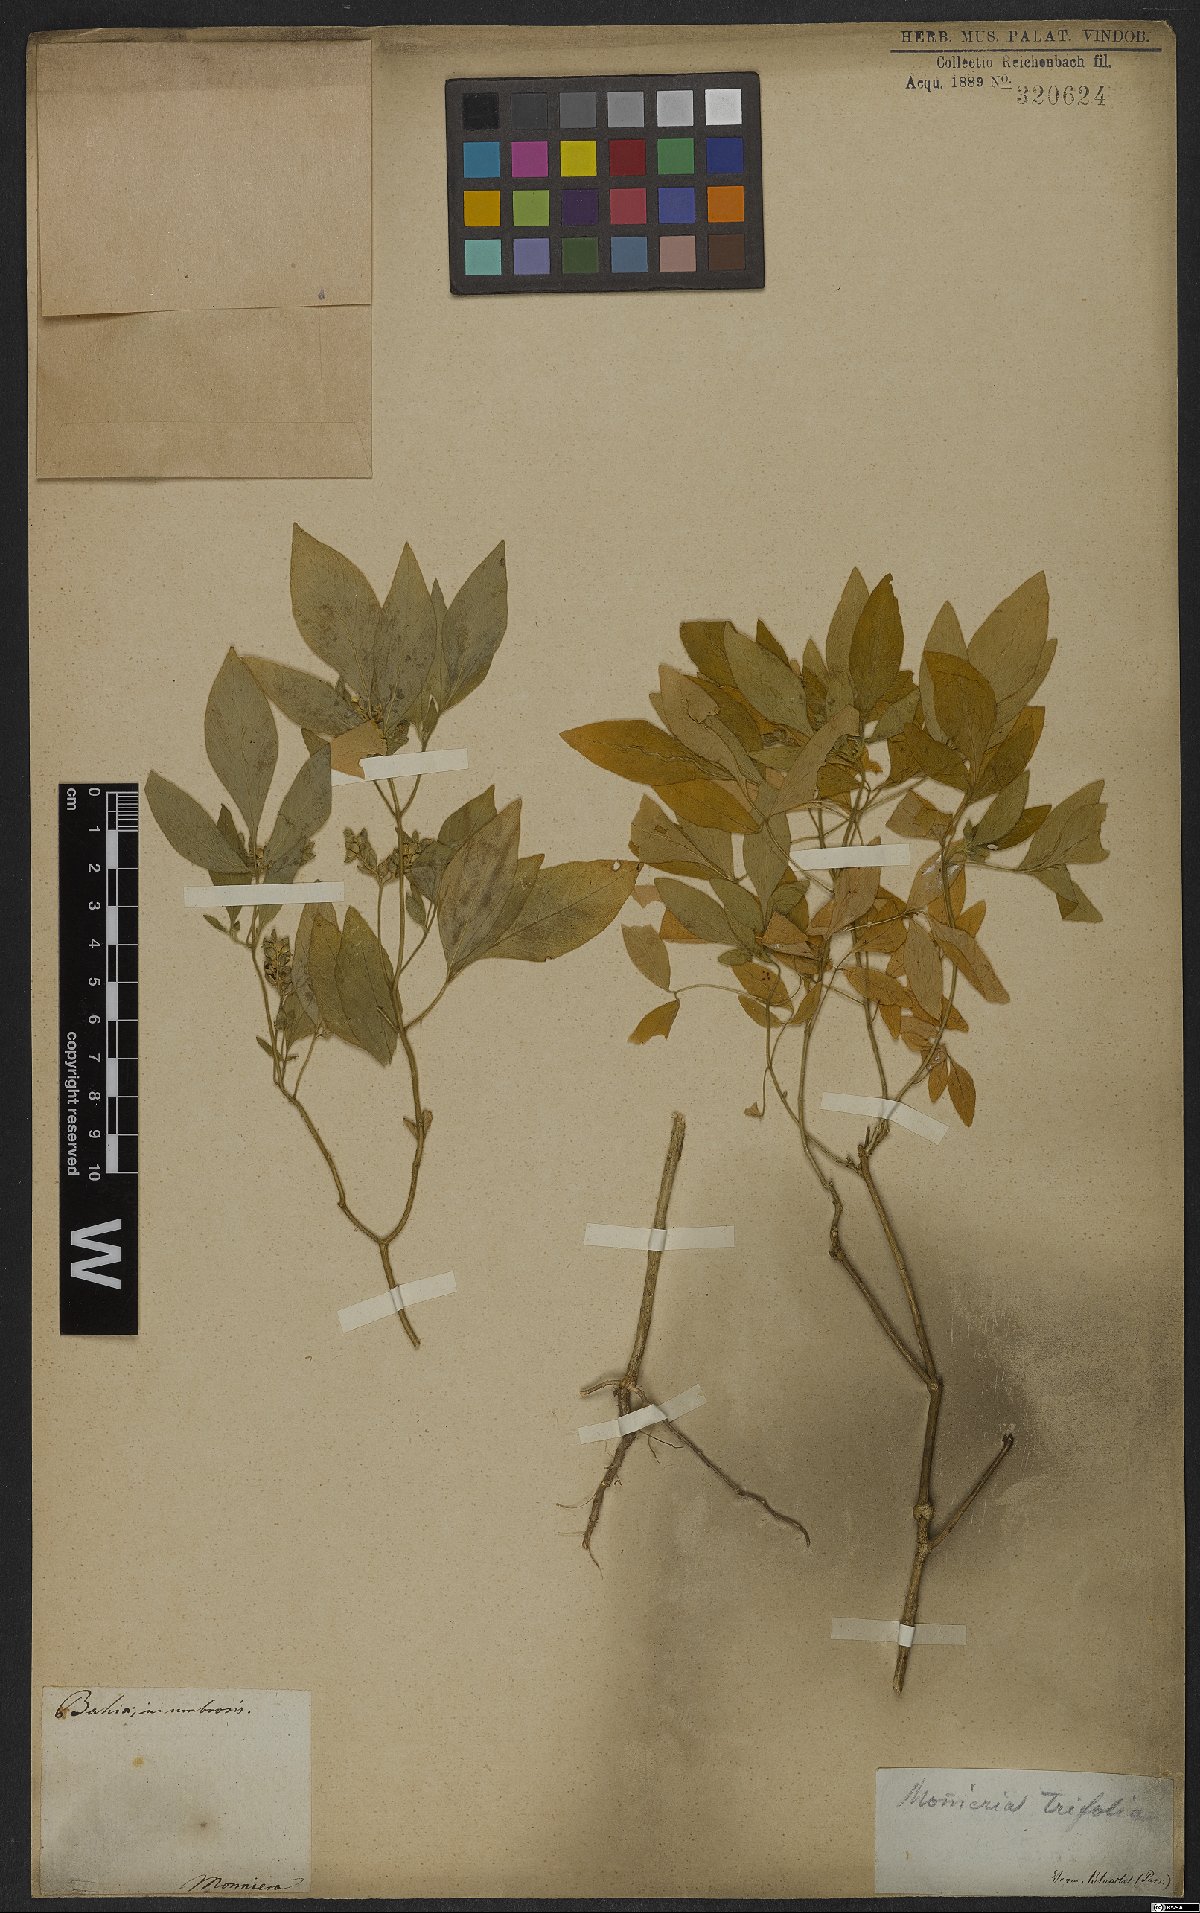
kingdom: Plantae
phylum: Tracheophyta
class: Magnoliopsida
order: Sapindales
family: Rutaceae
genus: Ertela
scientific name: Ertela trifolia
